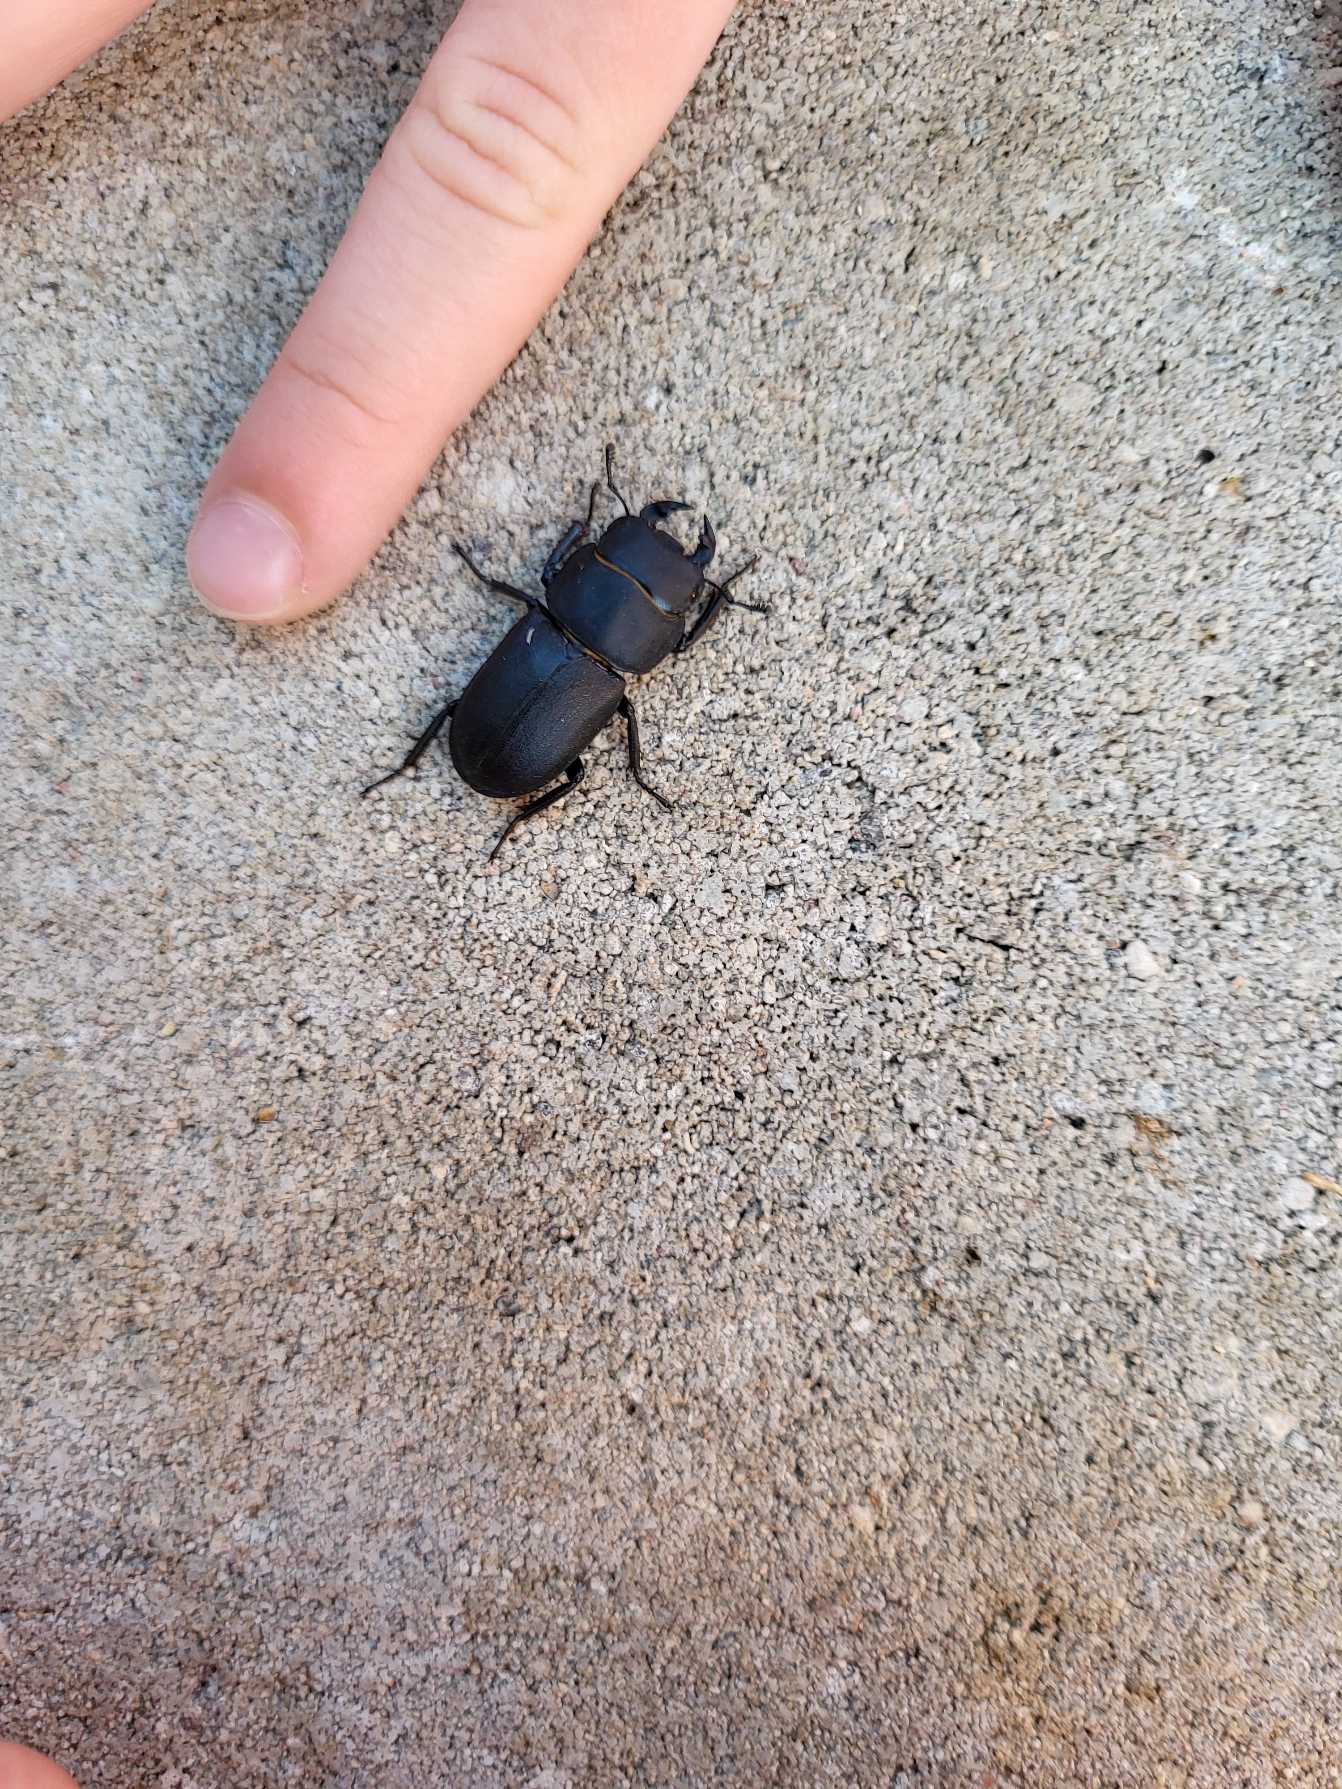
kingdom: Animalia
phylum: Arthropoda
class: Insecta
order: Coleoptera
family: Lucanidae
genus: Dorcus
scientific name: Dorcus parallelipipedus
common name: Bøghjort
